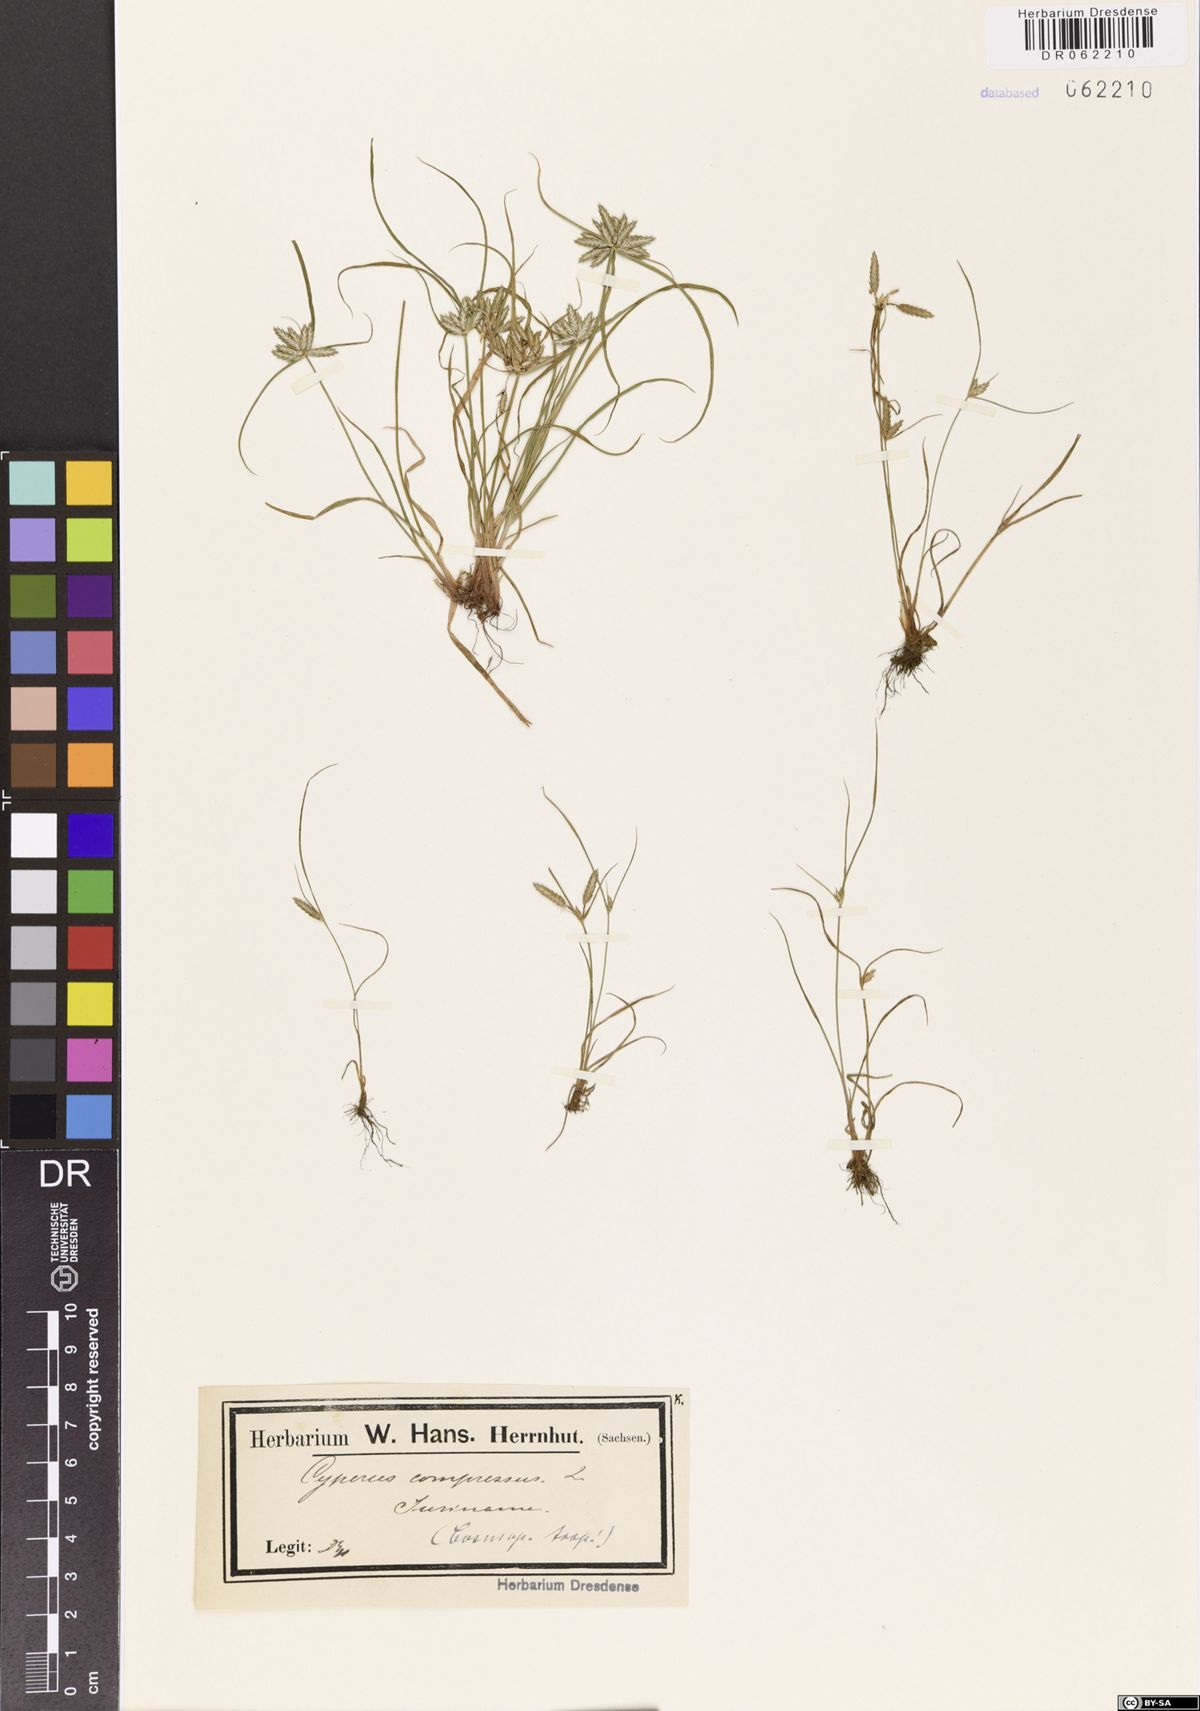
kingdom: Plantae
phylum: Tracheophyta
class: Liliopsida
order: Poales
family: Cyperaceae
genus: Cyperus
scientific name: Cyperus compressus
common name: Poorland flatsedge
